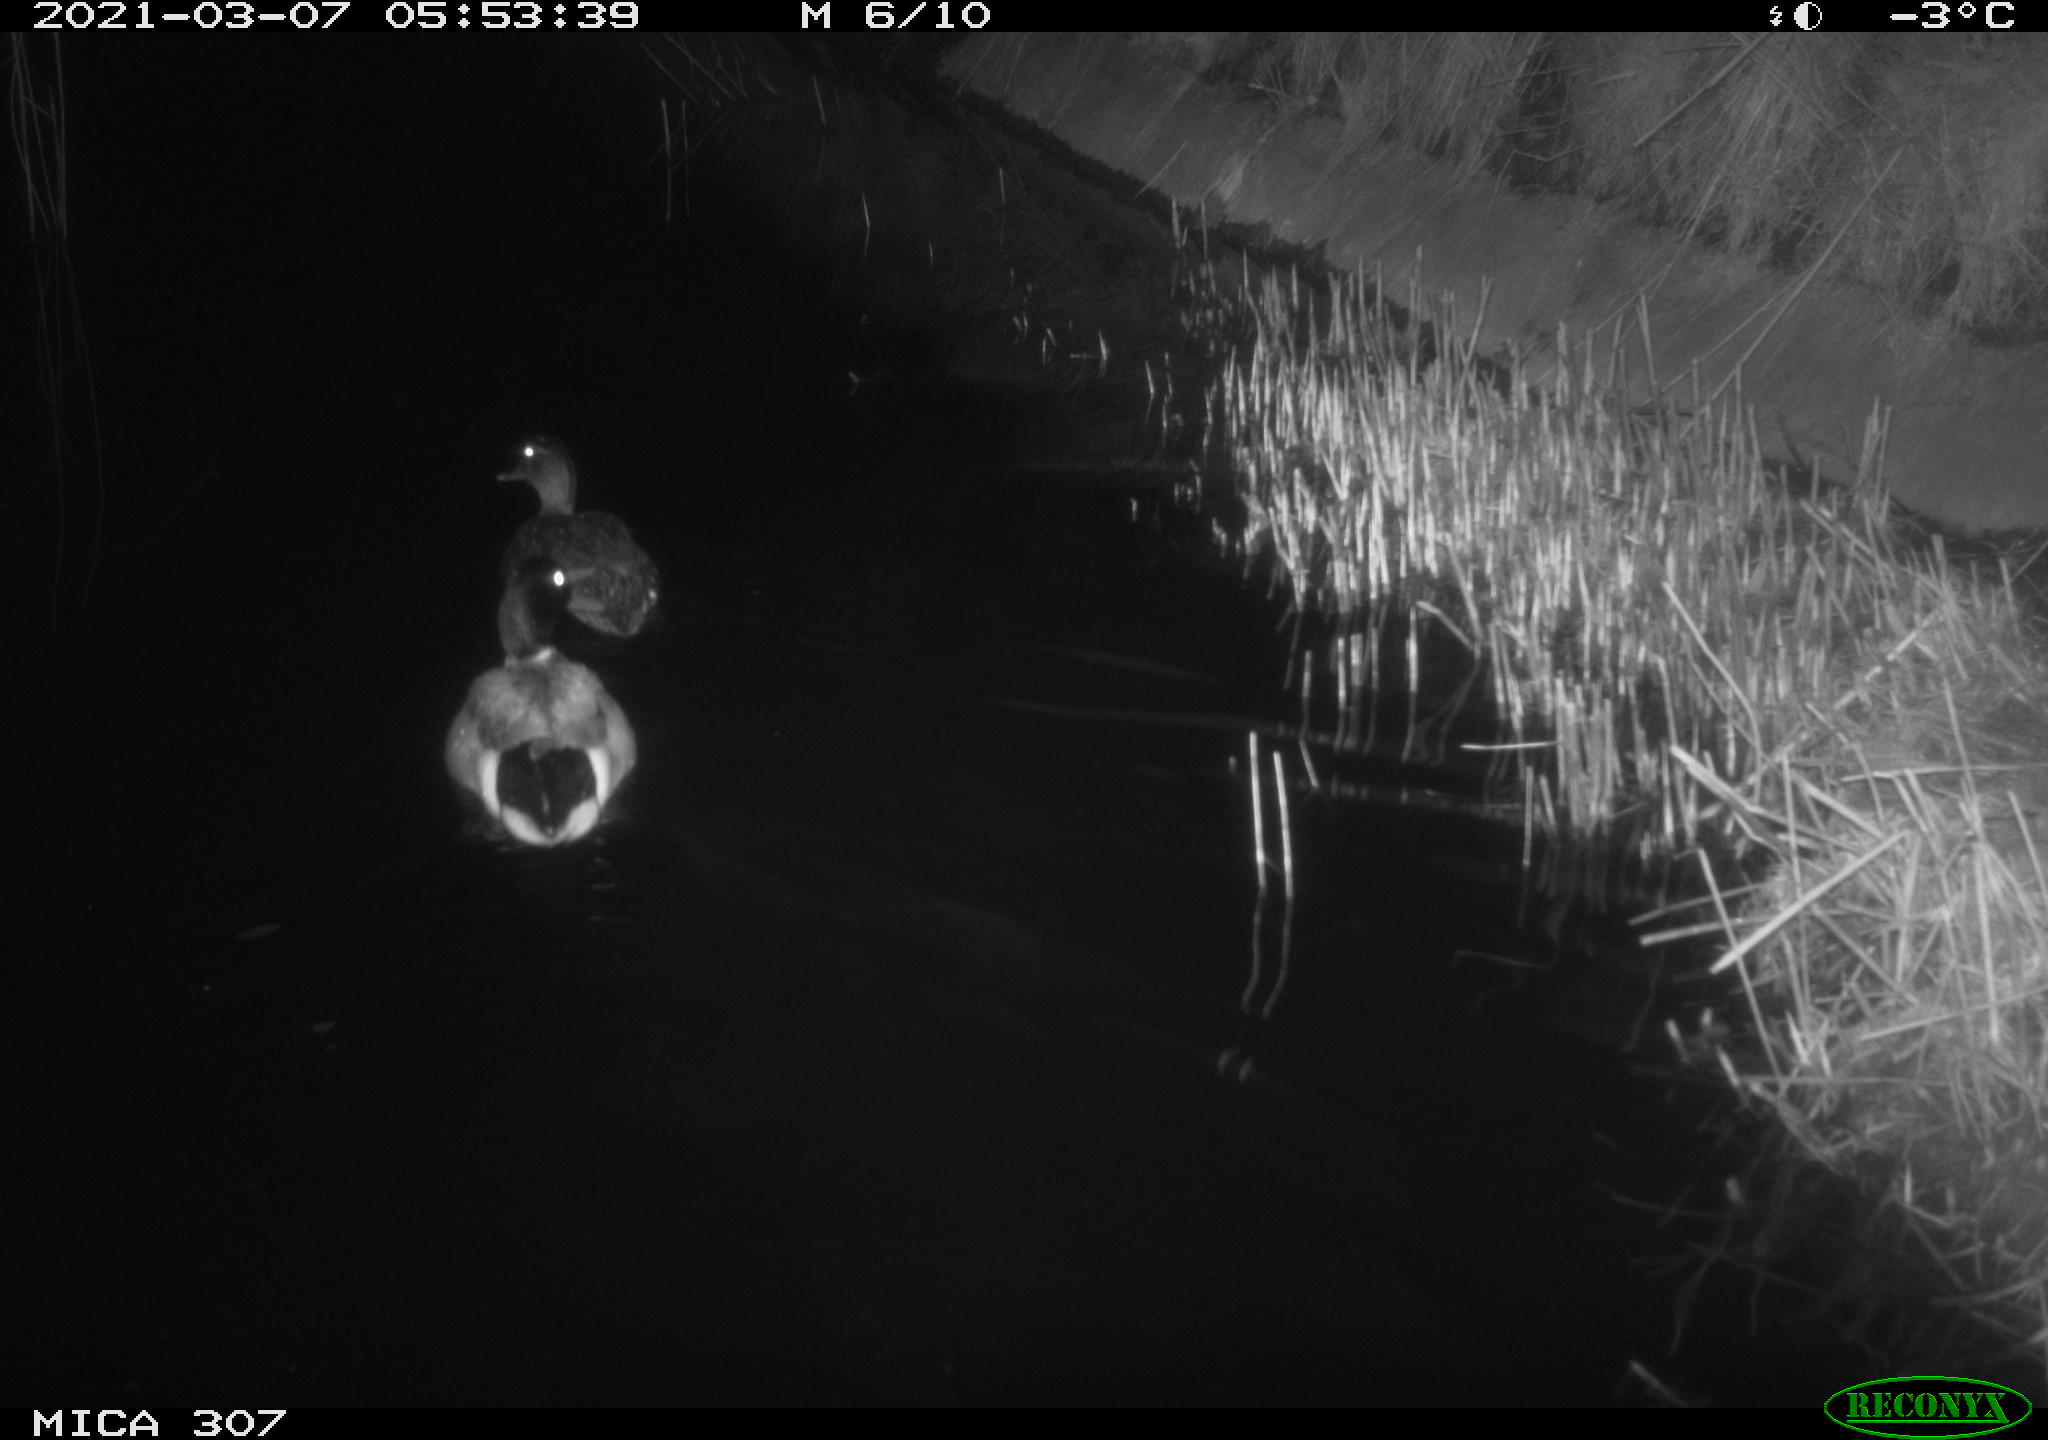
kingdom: Animalia
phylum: Chordata
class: Aves
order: Anseriformes
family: Anatidae
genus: Anas
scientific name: Anas platyrhynchos
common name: Mallard
